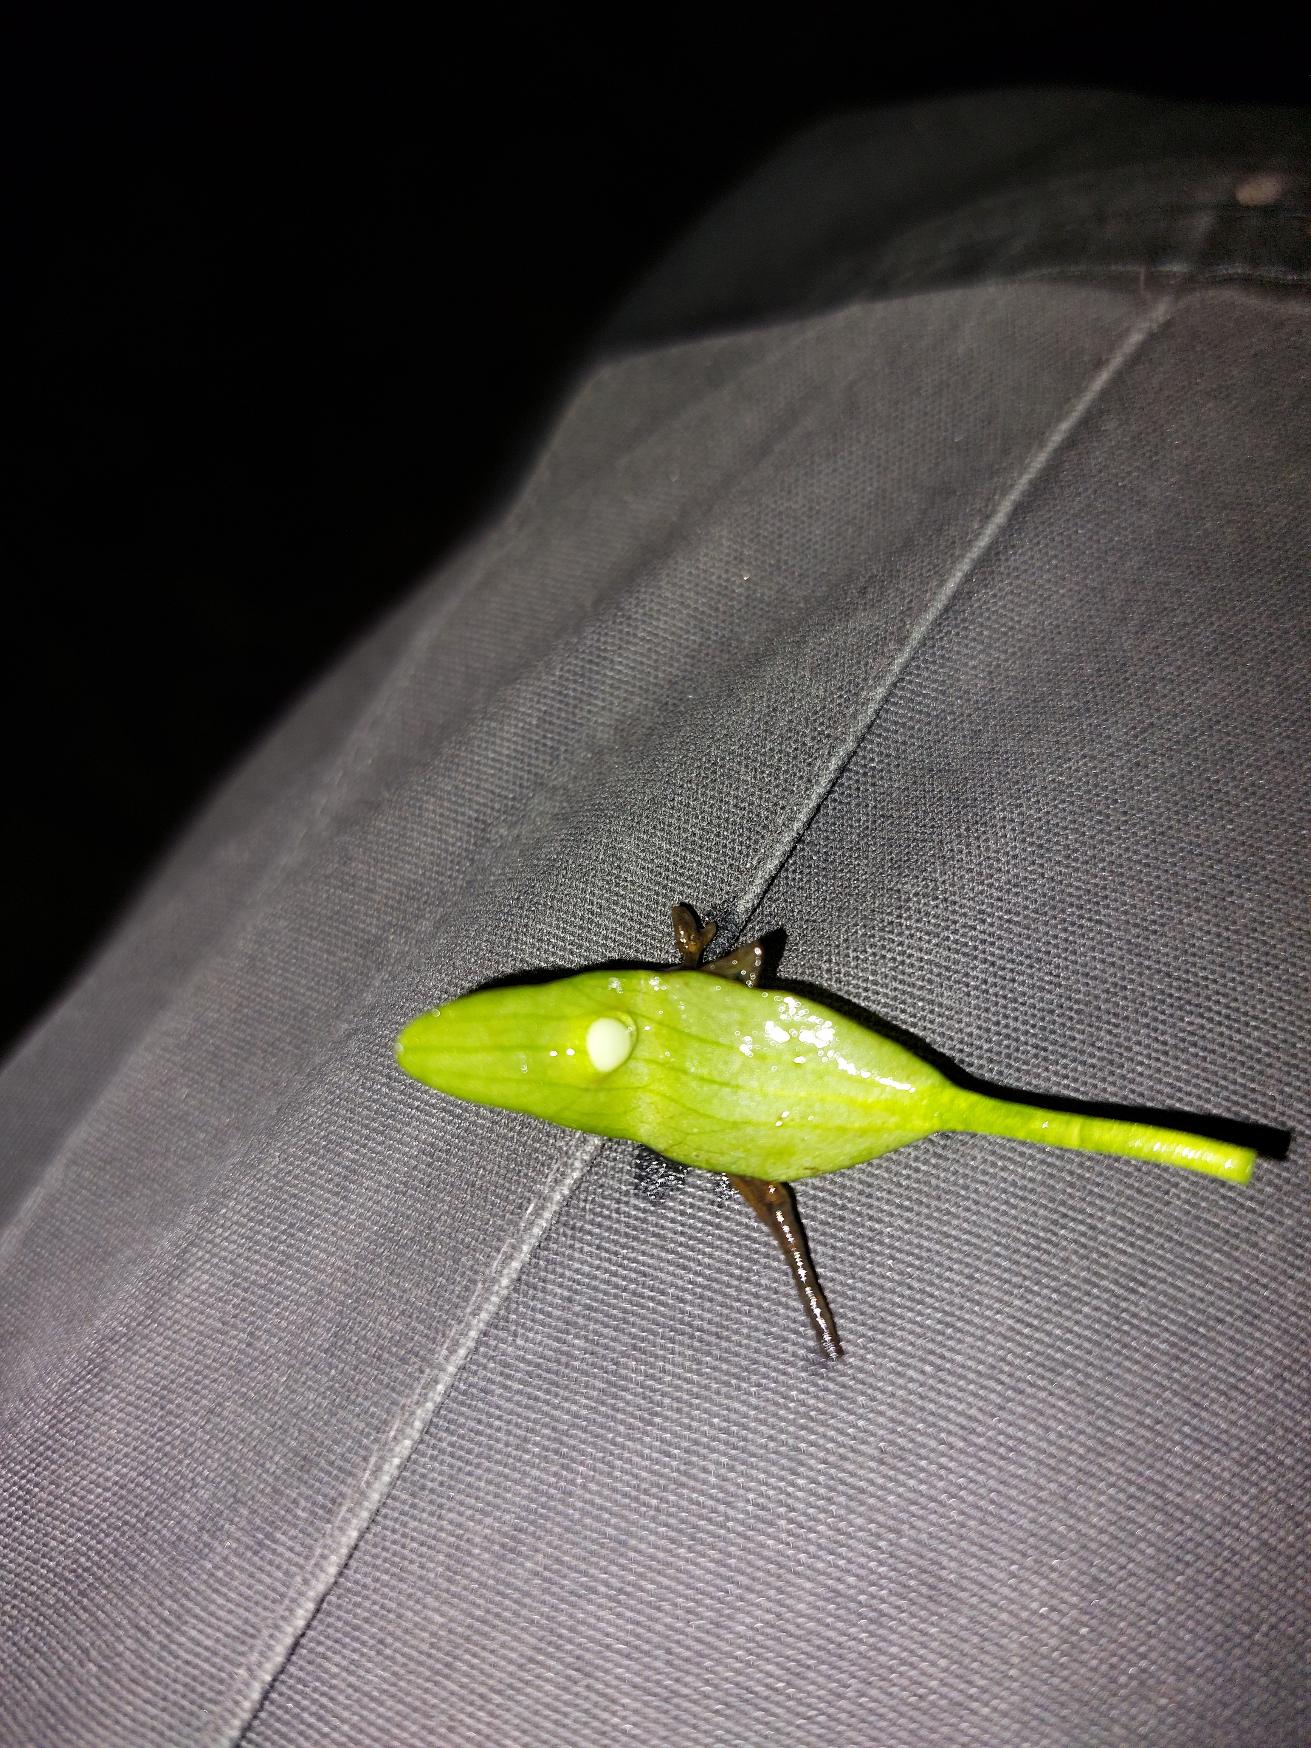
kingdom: Animalia
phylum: Chordata
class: Amphibia
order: Caudata
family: Salamandridae
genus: Triturus
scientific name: Triturus cristatus
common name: Stor vandsalamander
